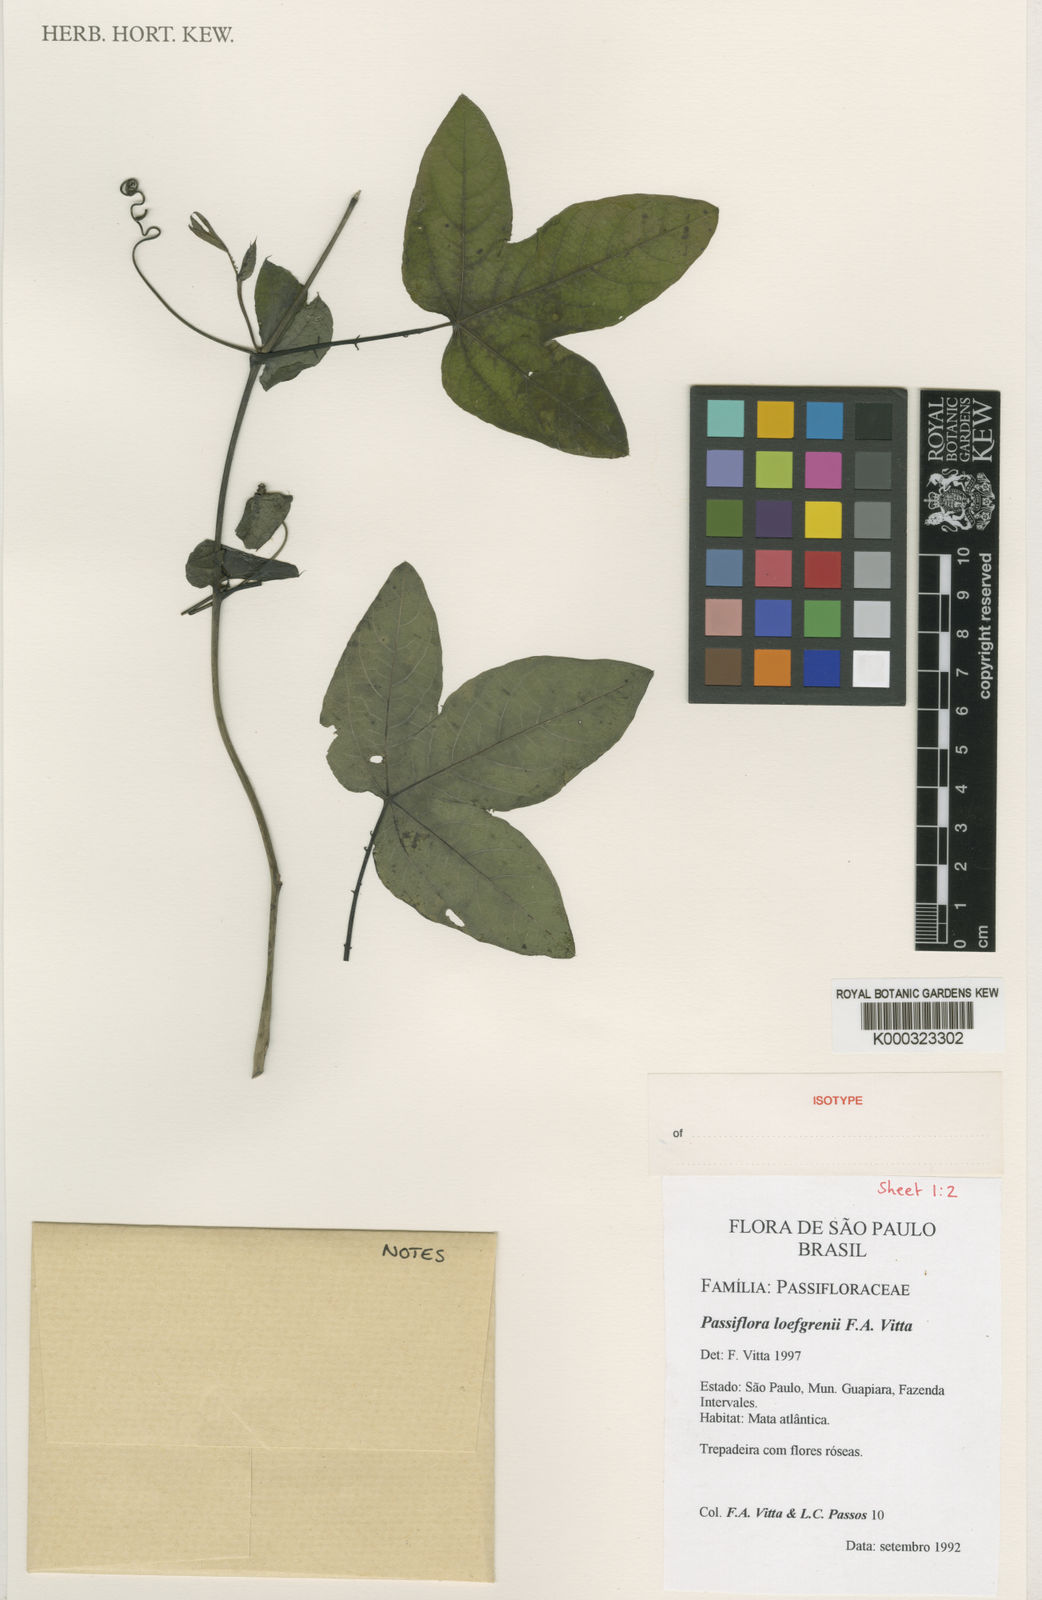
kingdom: Plantae
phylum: Tracheophyta
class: Magnoliopsida
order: Malpighiales
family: Passifloraceae
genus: Passiflora
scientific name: Passiflora loefgrenii
